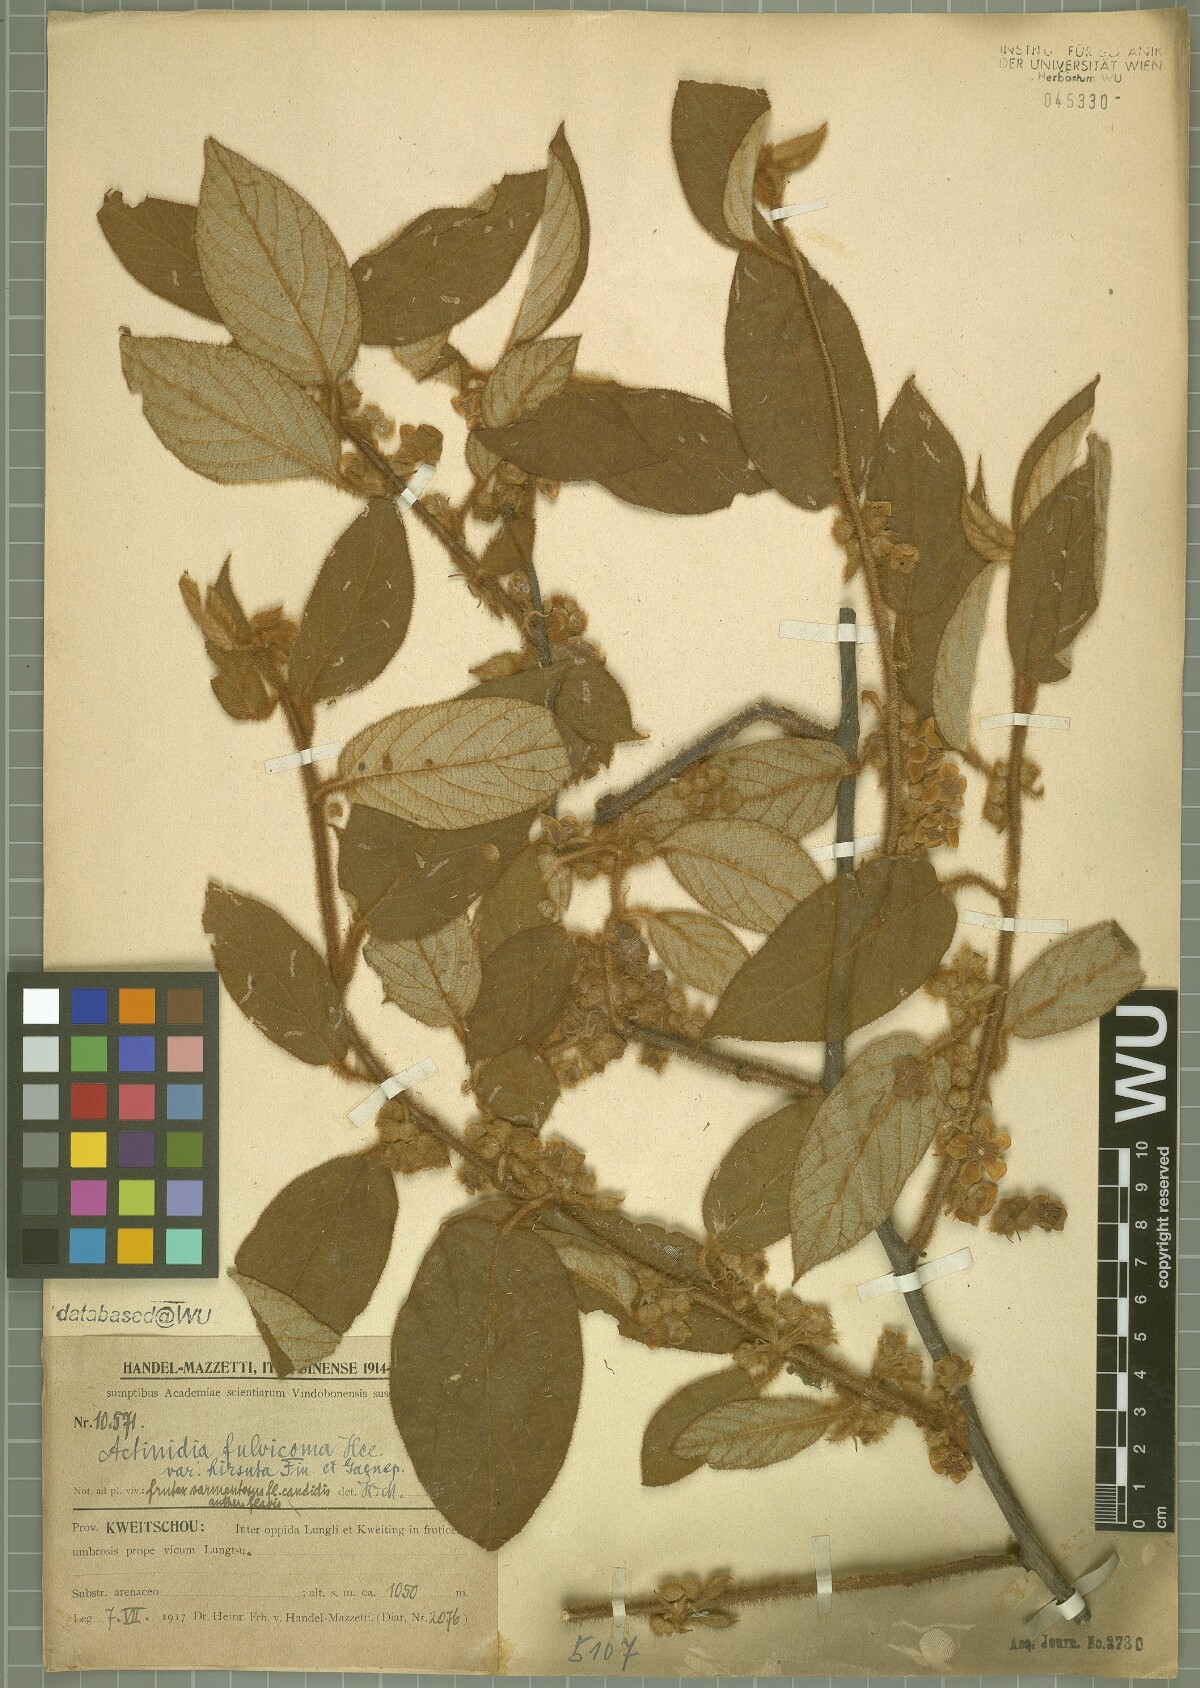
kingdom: Plantae
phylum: Tracheophyta
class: Magnoliopsida
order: Ericales
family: Actinidiaceae
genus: Actinidia
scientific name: Actinidia fulvicoma
